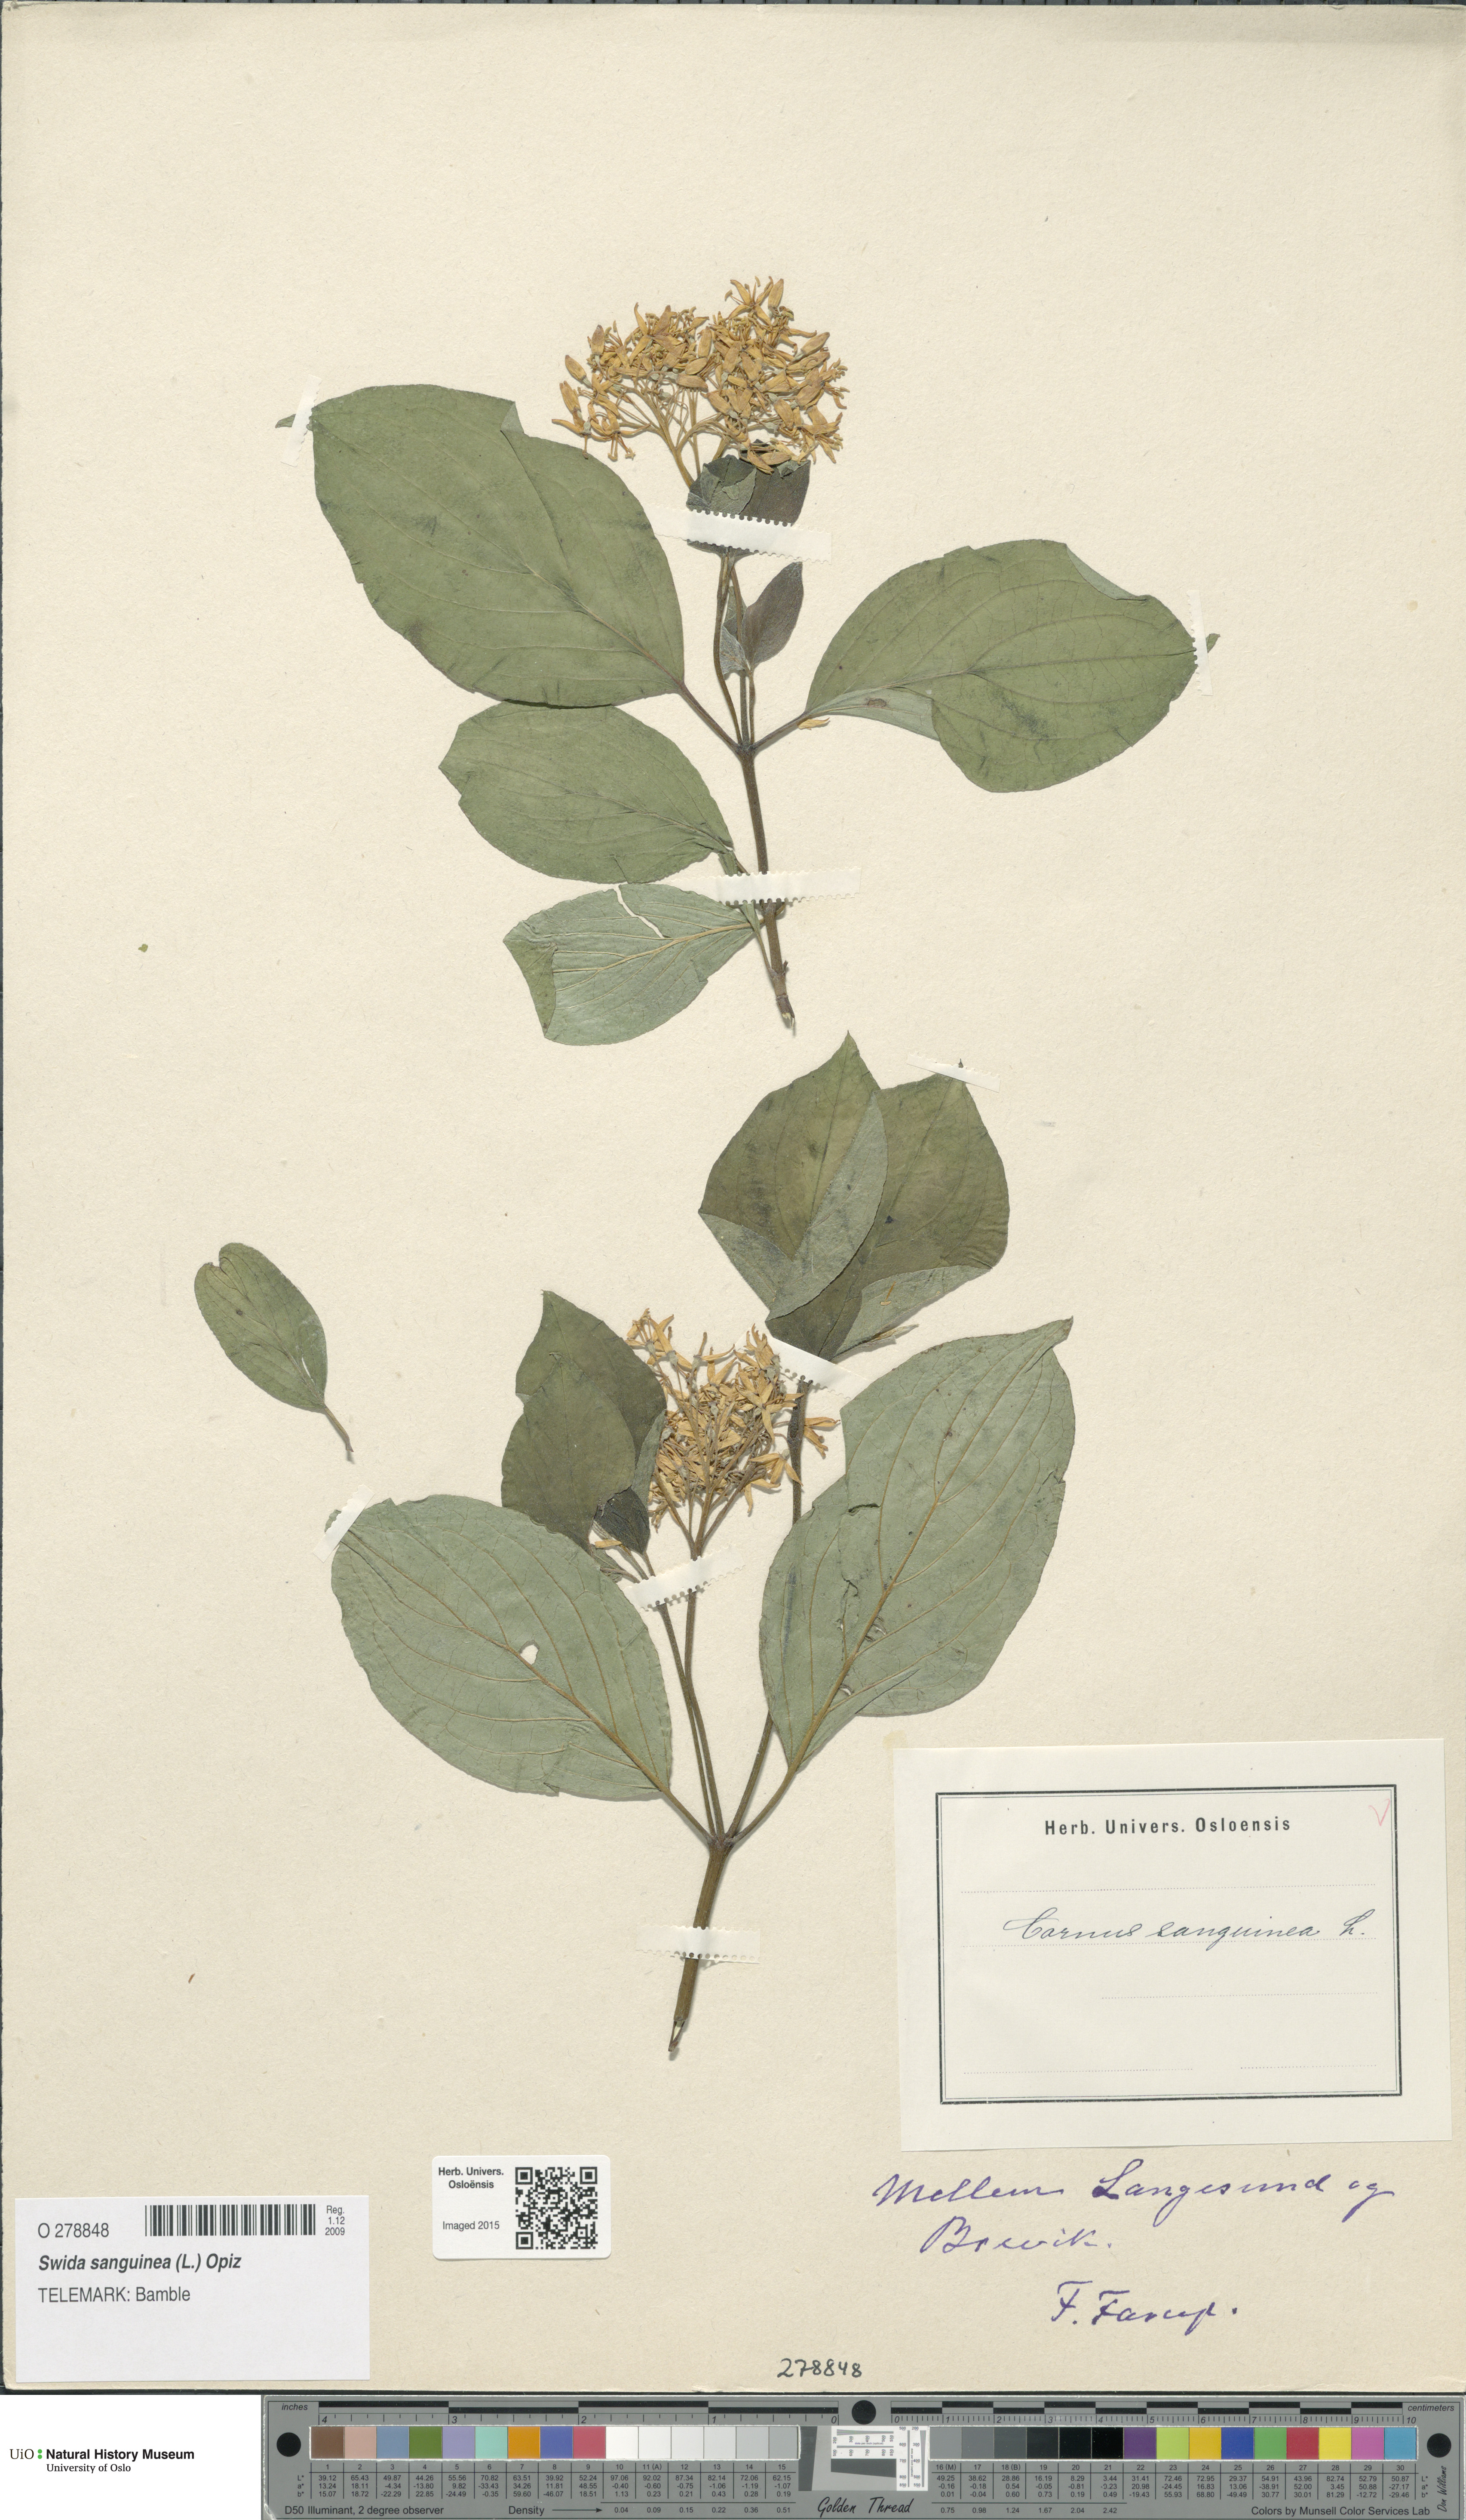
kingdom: Plantae
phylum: Tracheophyta
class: Magnoliopsida
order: Cornales
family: Cornaceae
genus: Cornus
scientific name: Cornus sanguinea
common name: Dogwood
